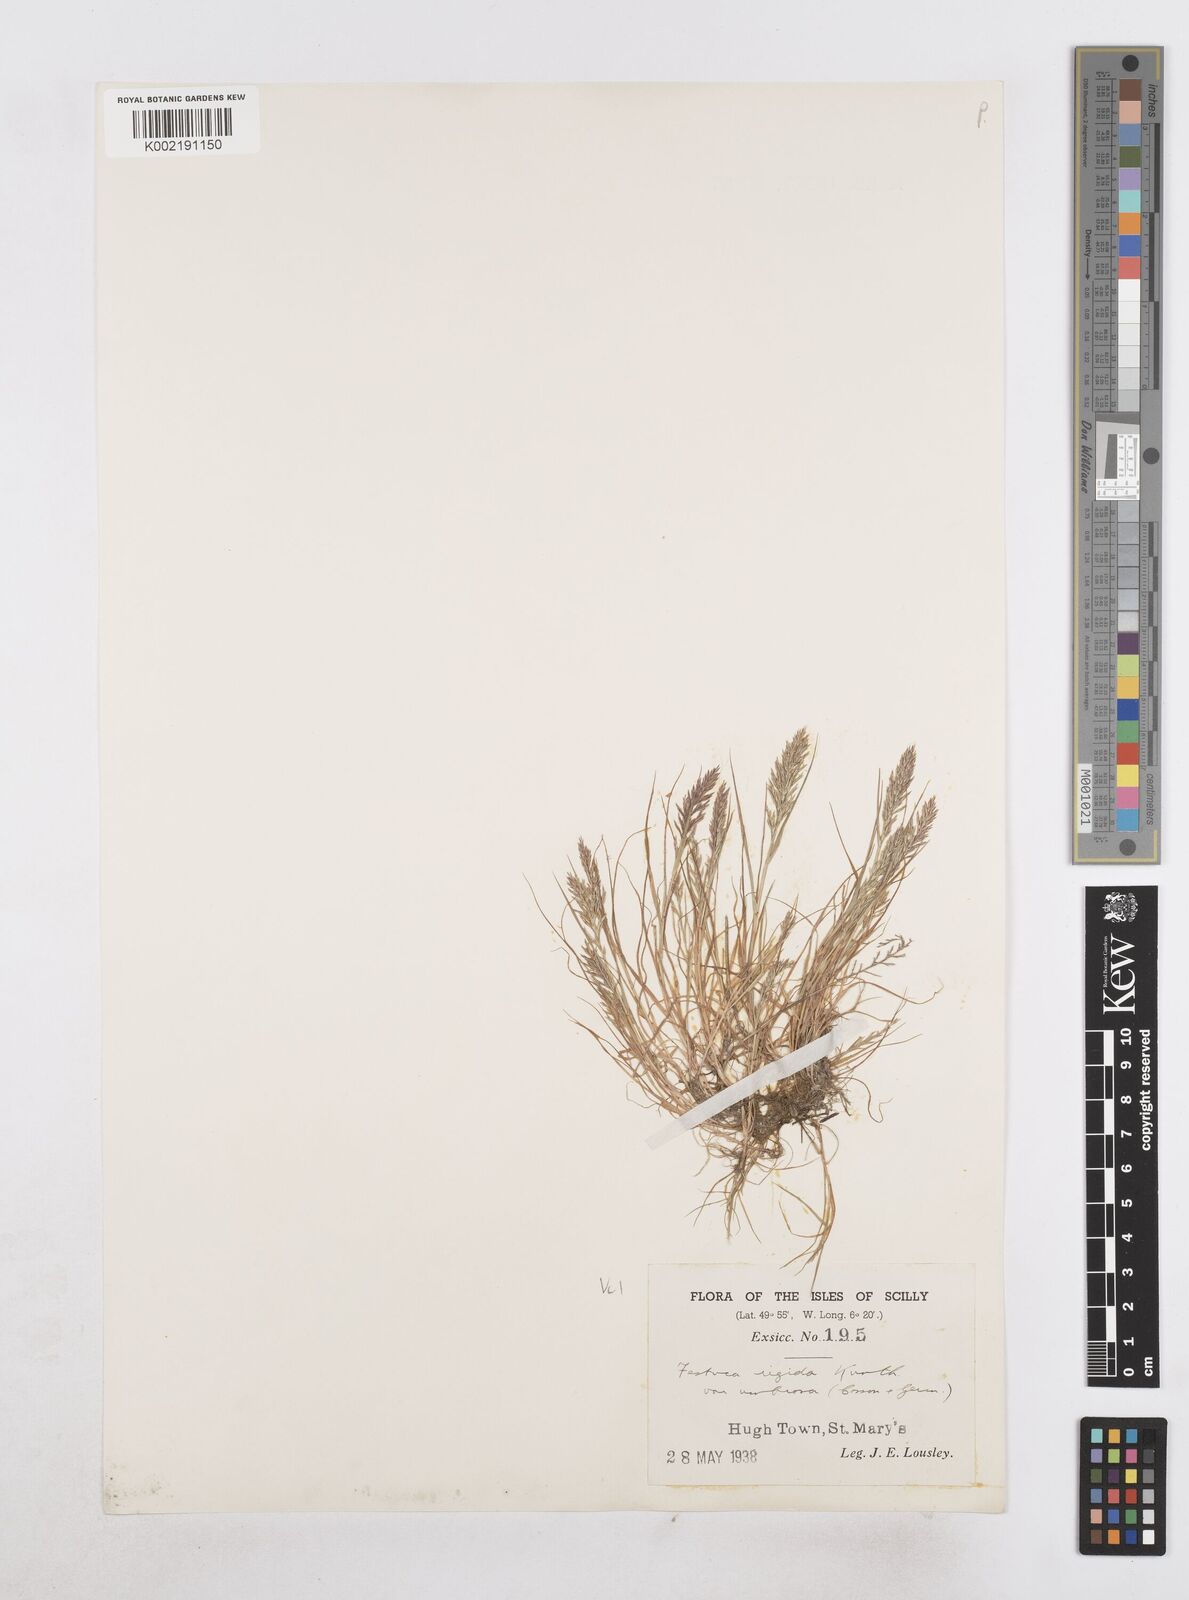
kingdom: Plantae
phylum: Tracheophyta
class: Liliopsida
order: Poales
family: Poaceae
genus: Catapodium
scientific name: Catapodium rigidum
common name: Fern-grass
